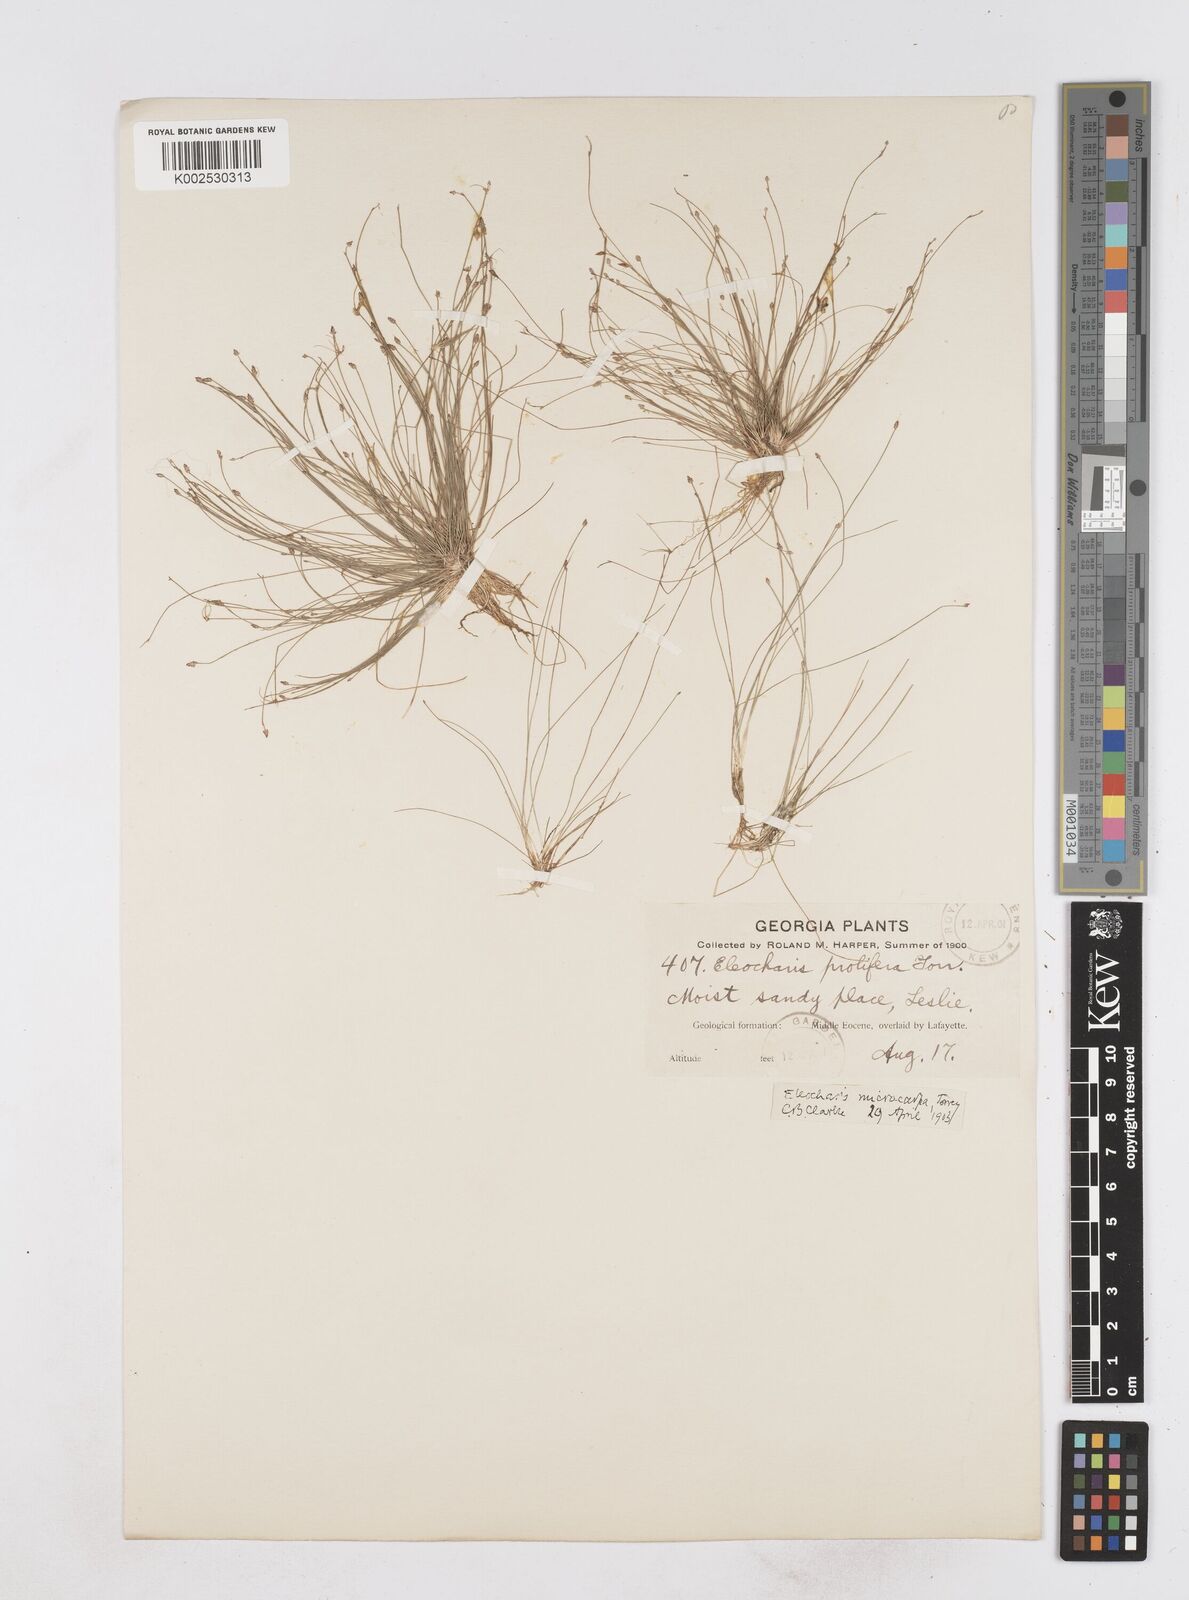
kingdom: Plantae
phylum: Tracheophyta
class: Liliopsida
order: Poales
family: Cyperaceae
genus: Eleocharis
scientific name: Eleocharis microcarpa
